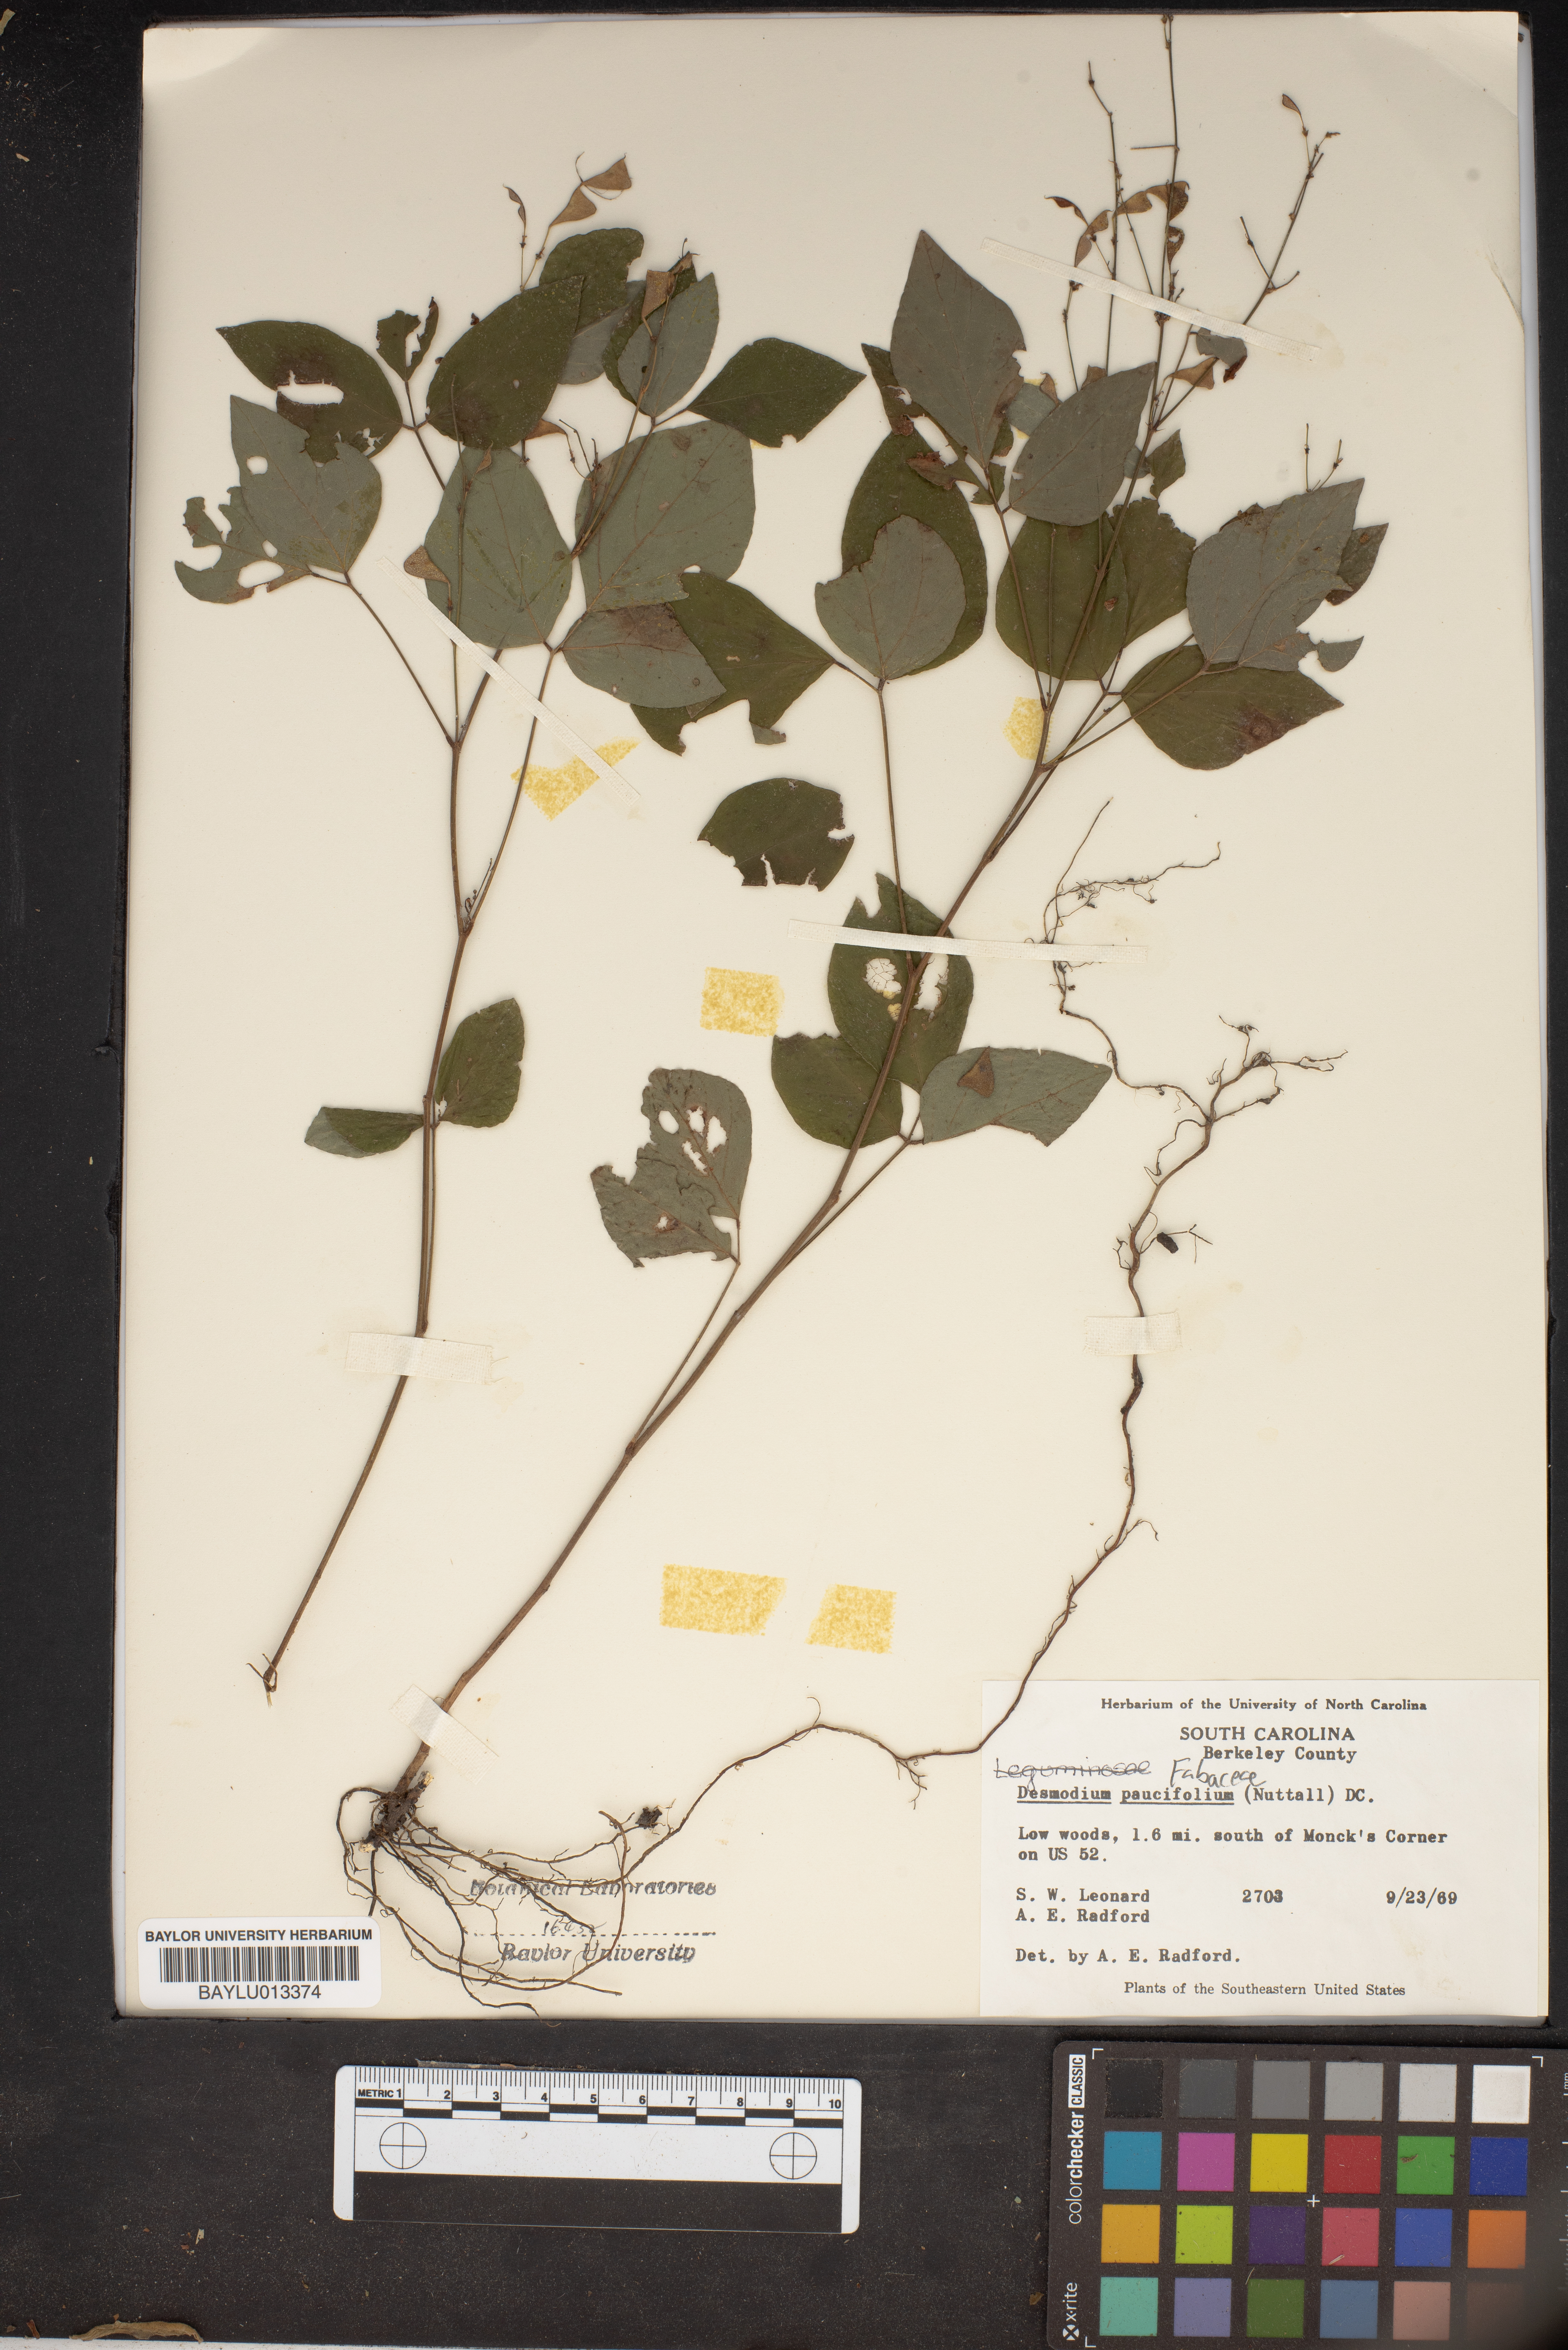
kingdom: Plantae
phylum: Tracheophyta
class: Magnoliopsida
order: Fabales
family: Fabaceae
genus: Hylodesmum
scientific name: Hylodesmum pauciflorum
